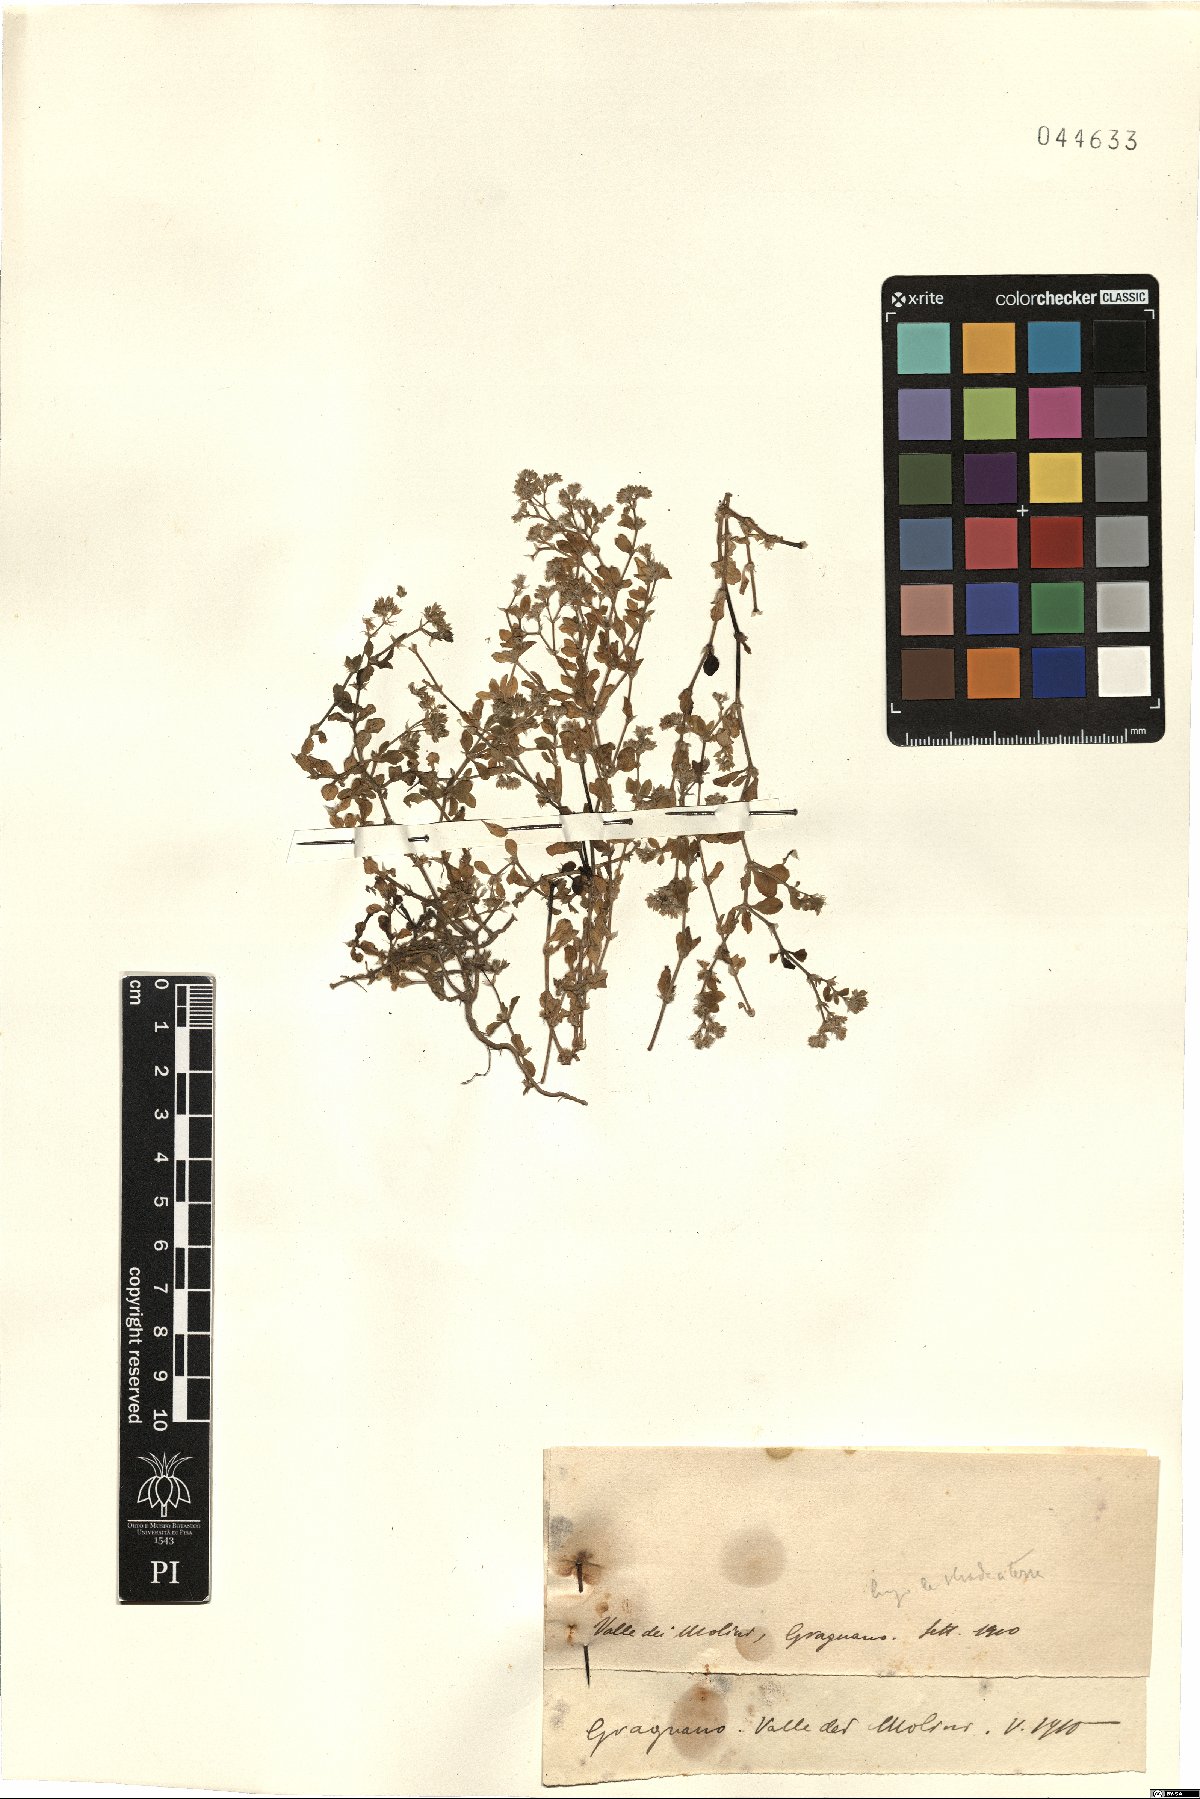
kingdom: Plantae
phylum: Tracheophyta
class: Magnoliopsida
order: Caryophyllales
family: Caryophyllaceae
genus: Polycarpon
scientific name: Polycarpon
